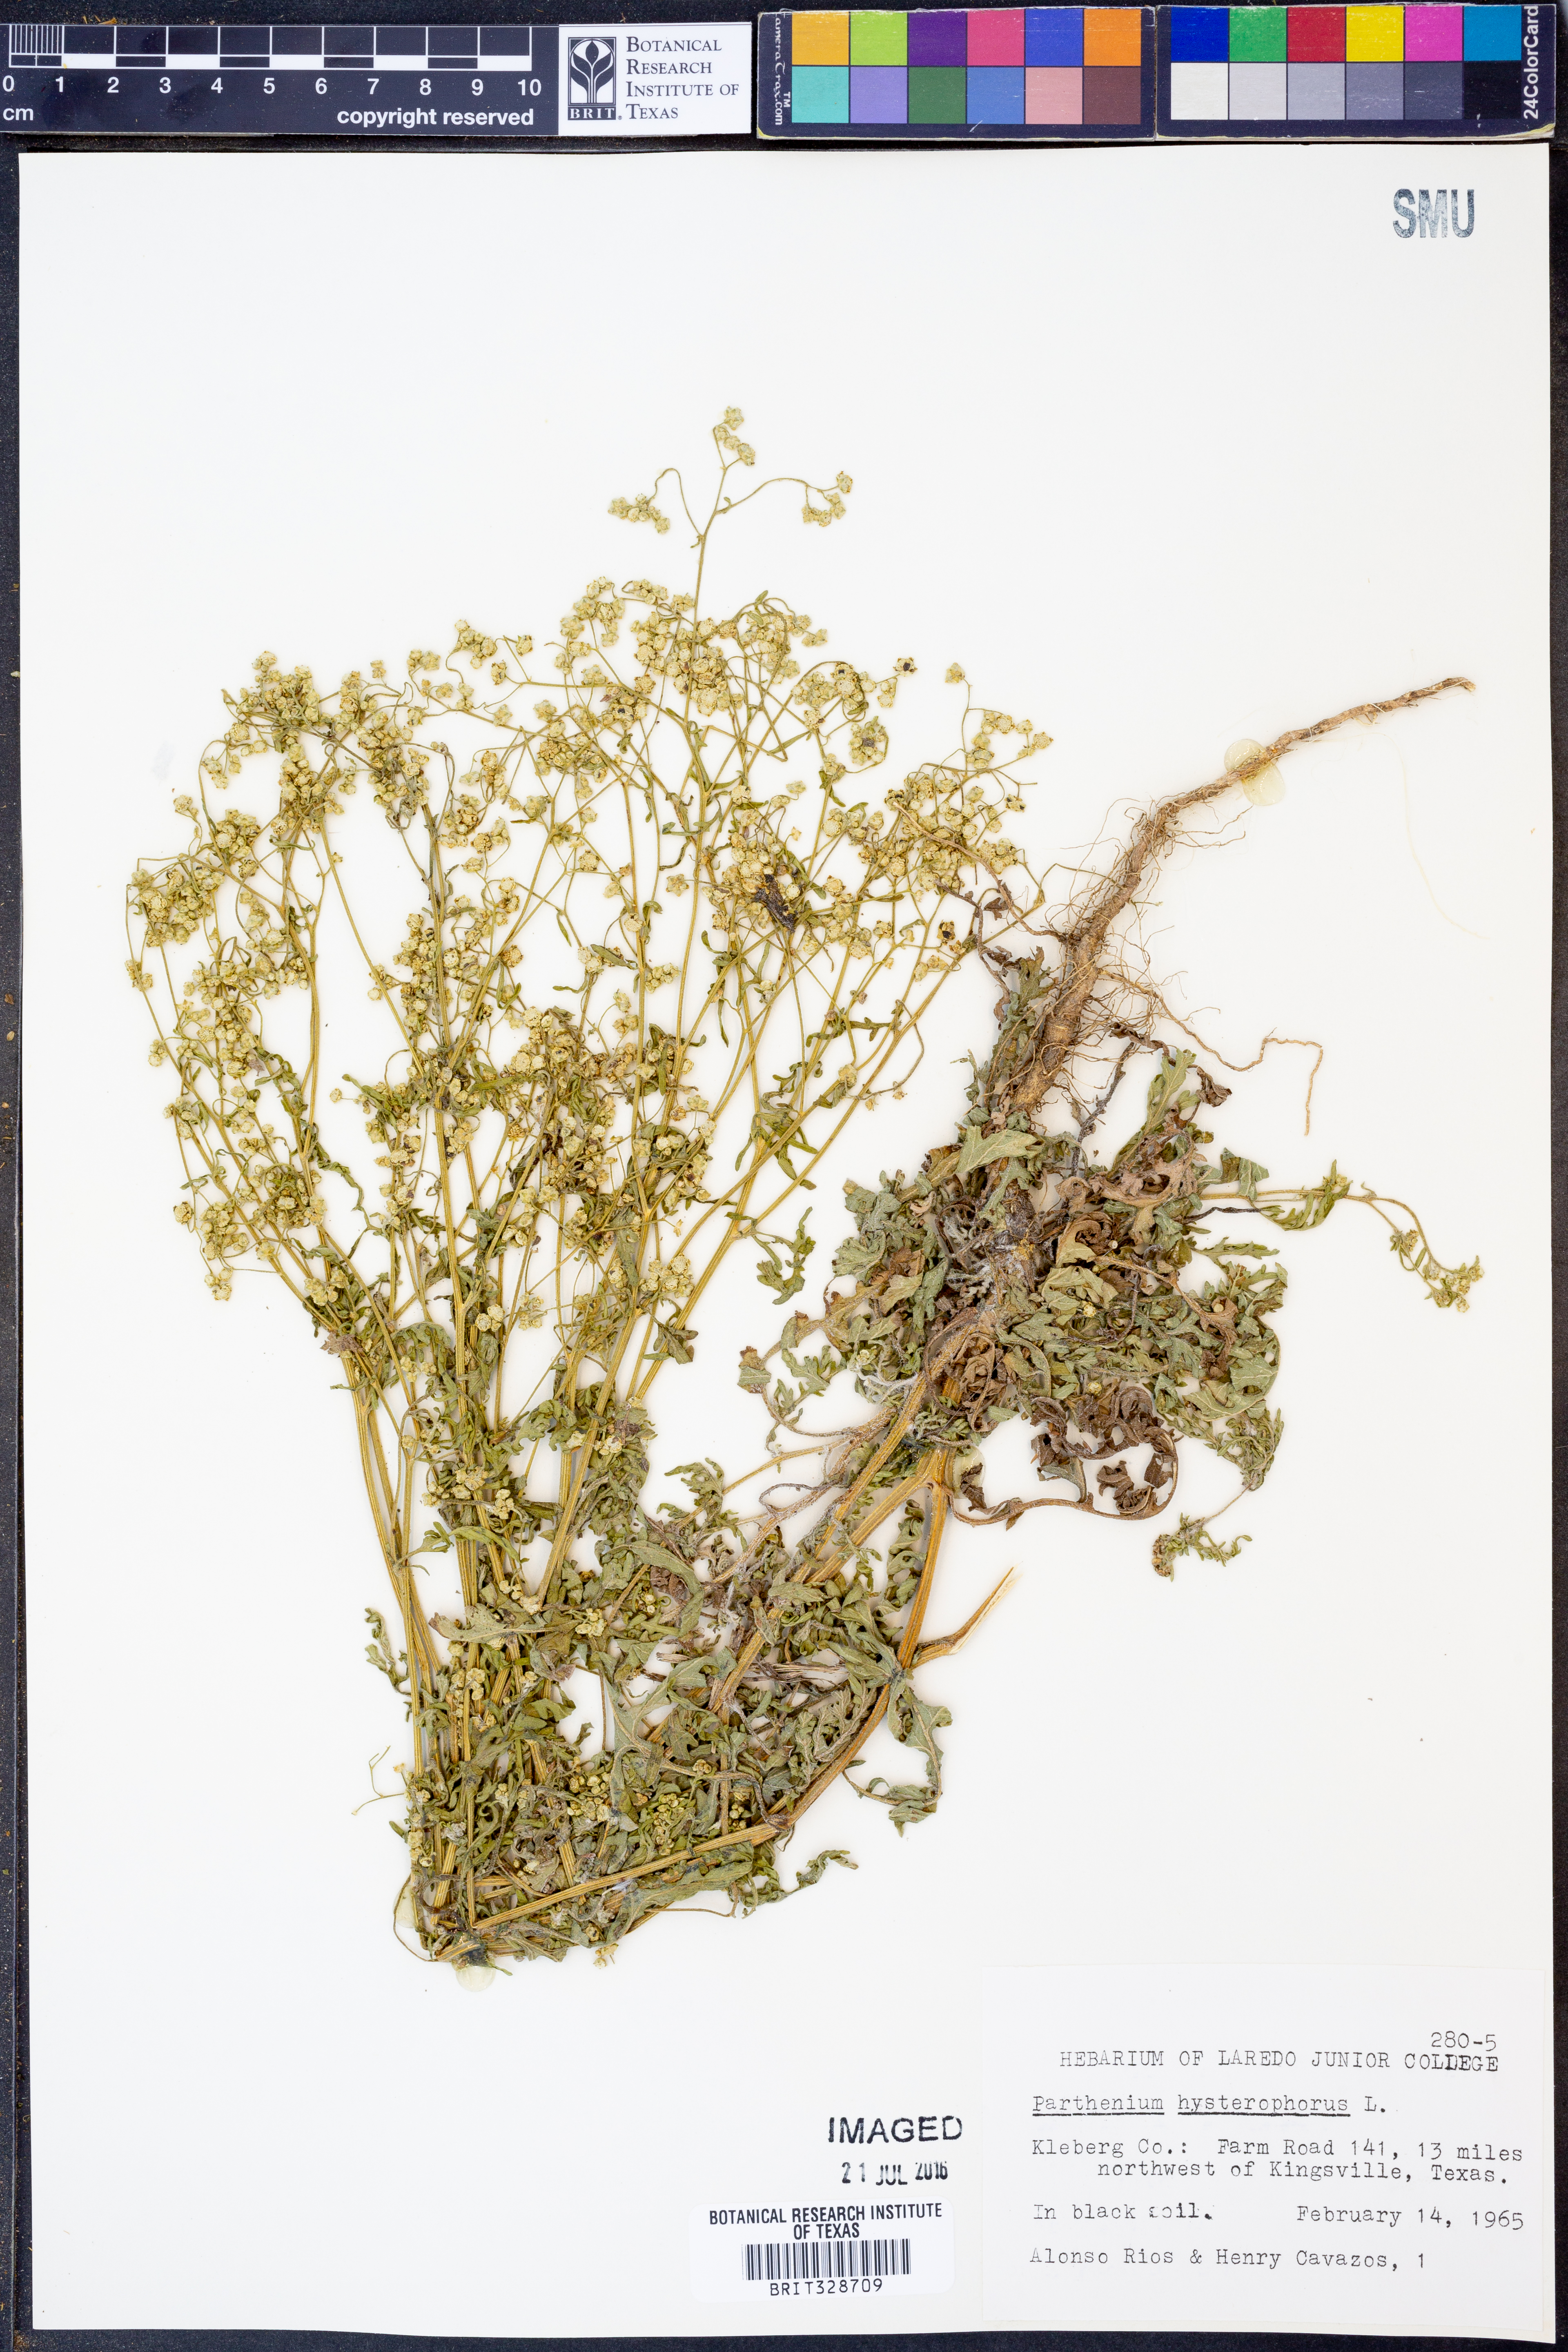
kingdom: Plantae
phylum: Tracheophyta
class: Magnoliopsida
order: Asterales
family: Asteraceae
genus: Parthenium
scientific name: Parthenium hysterophorus
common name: Santa maria feverfew
